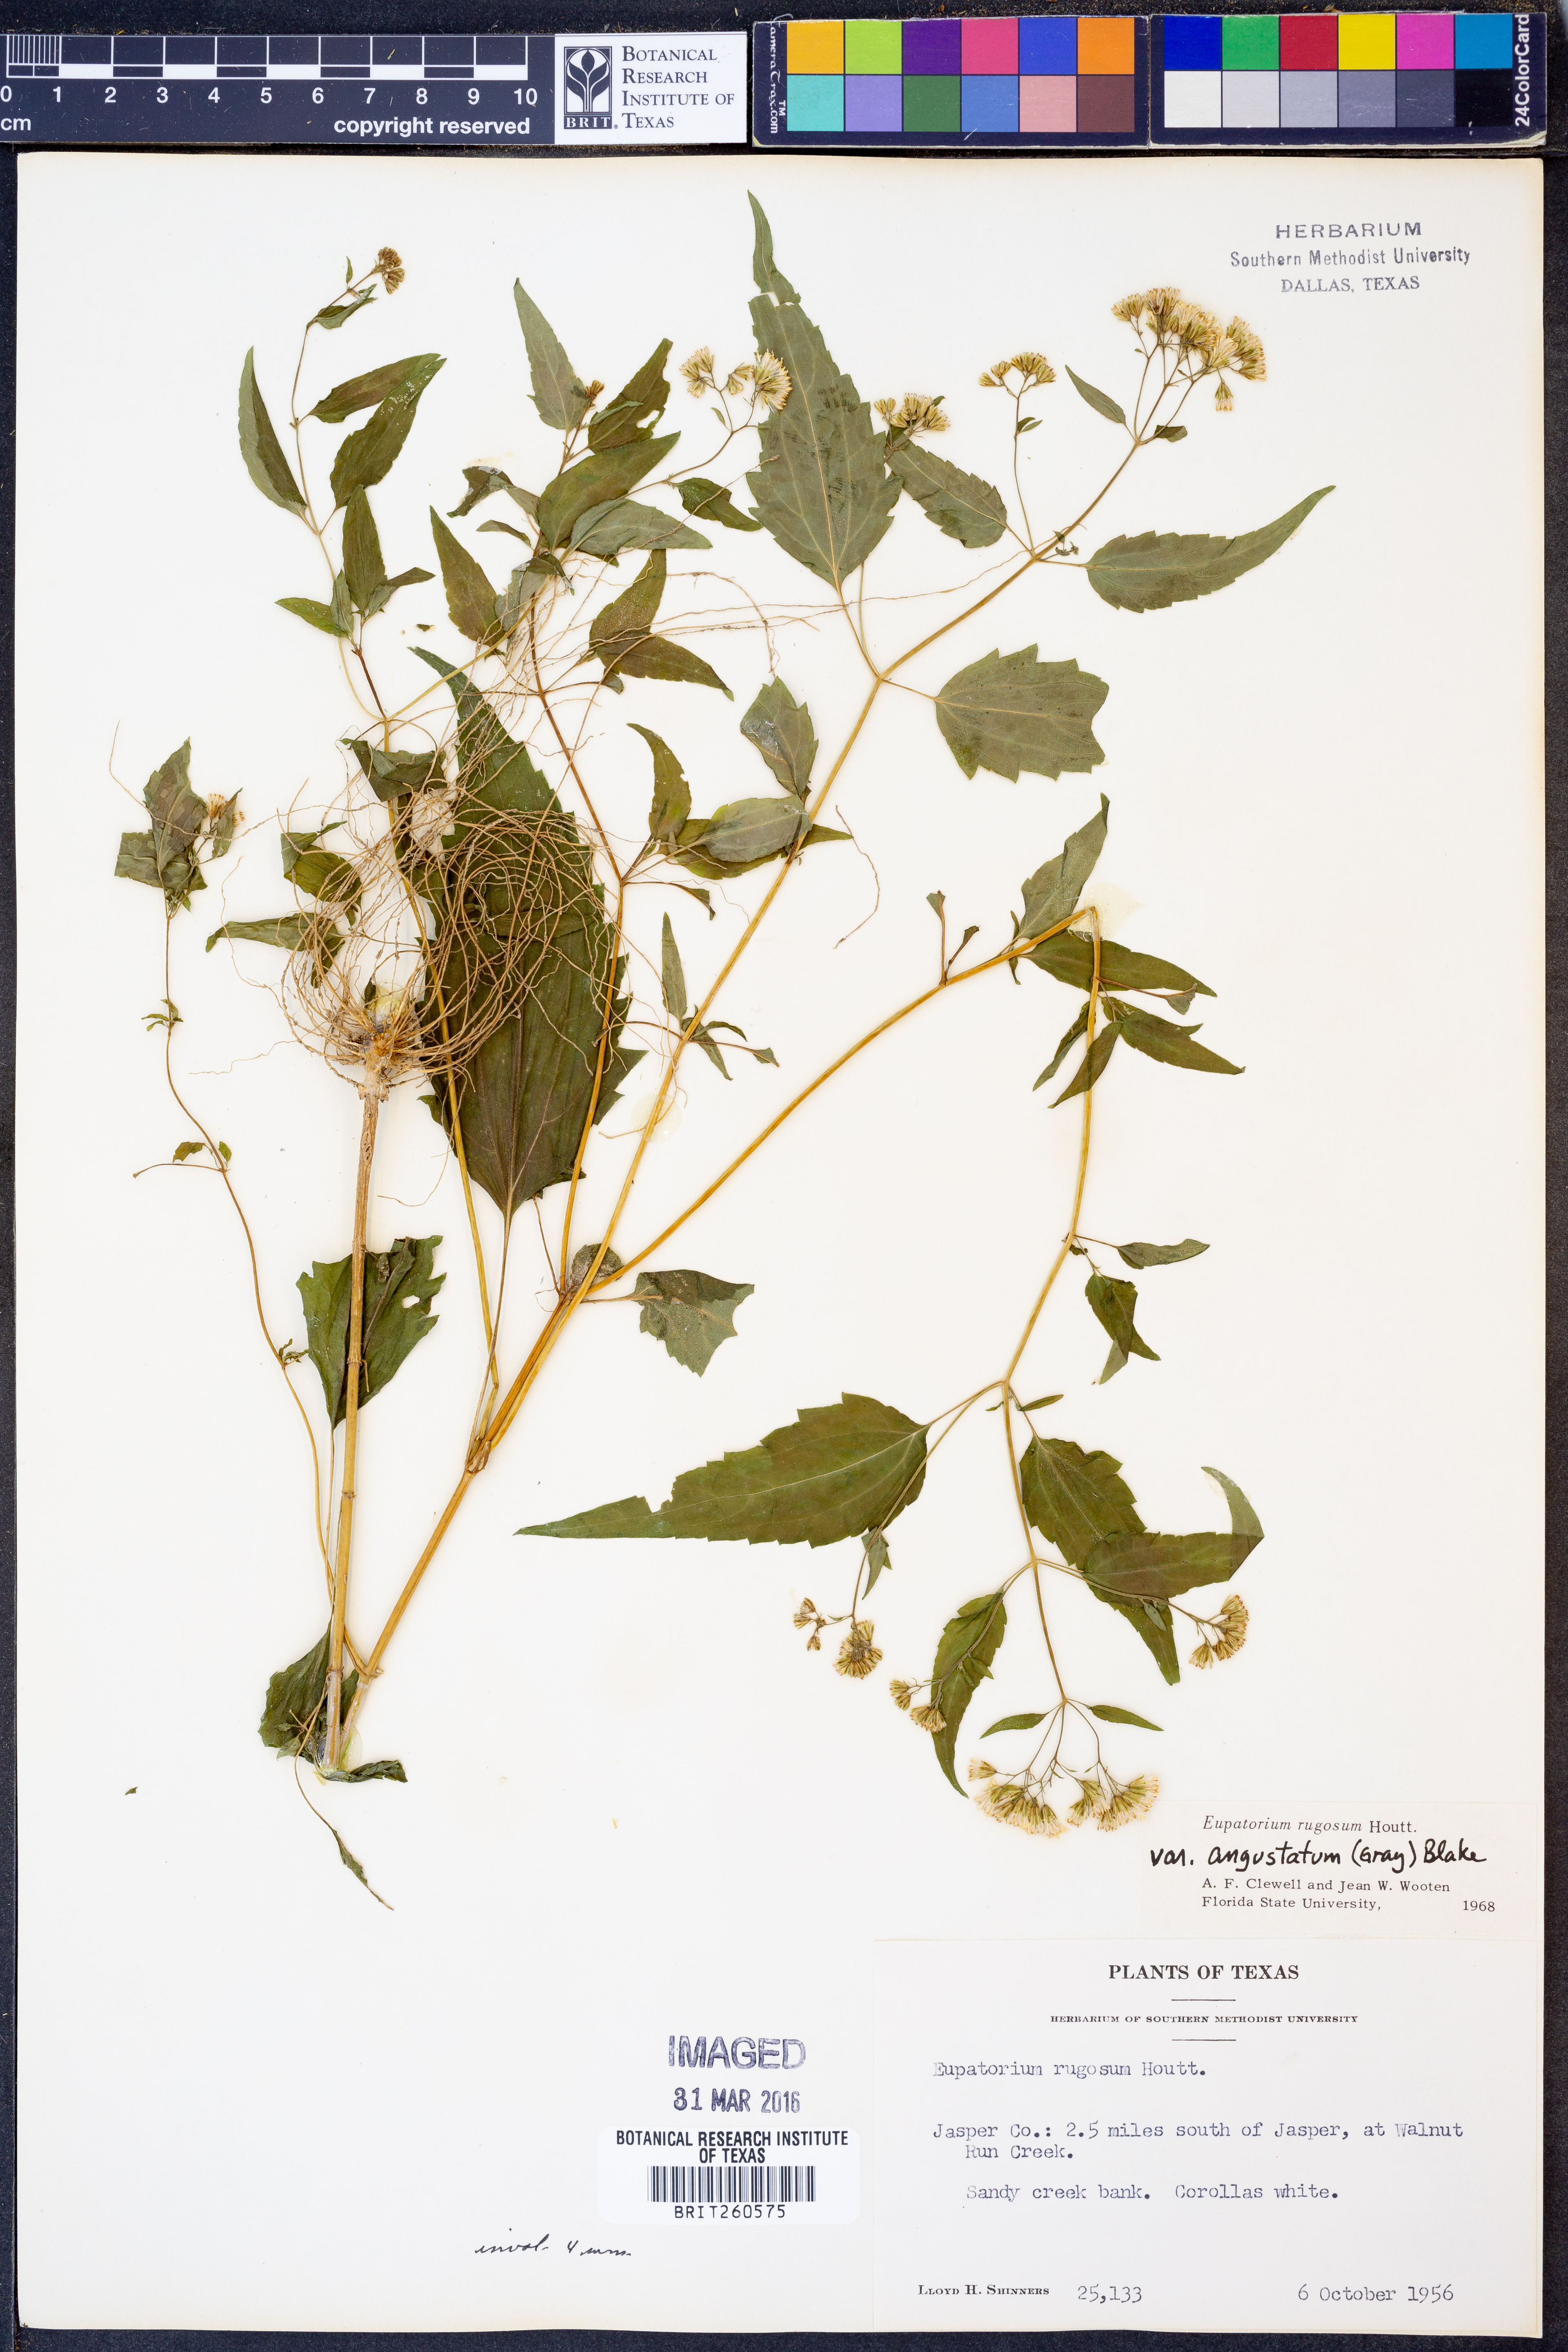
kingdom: Plantae
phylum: Tracheophyta
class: Magnoliopsida
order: Asterales
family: Asteraceae
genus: Ageratina
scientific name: Ageratina altissima
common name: White snakeroot
